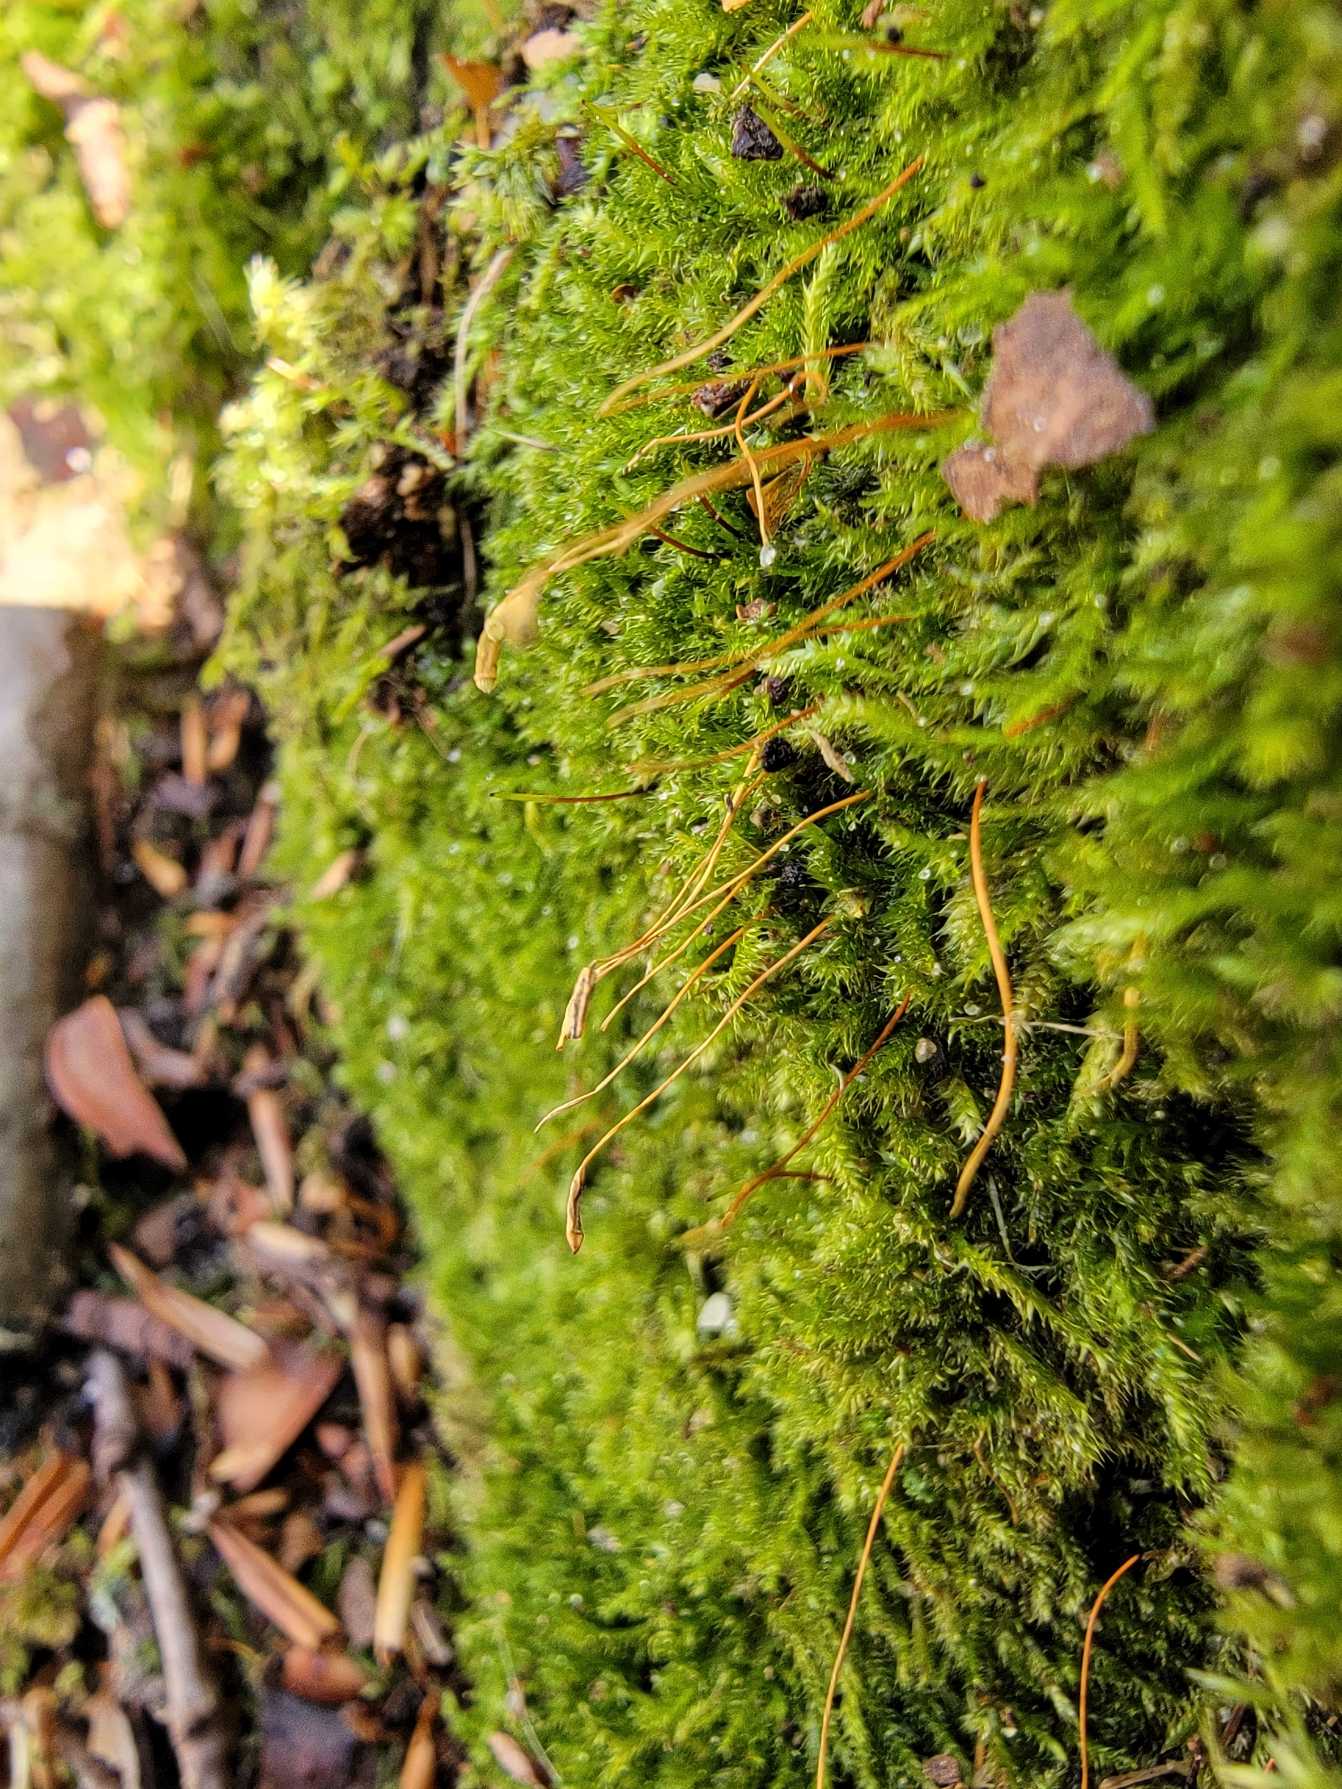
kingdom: Plantae
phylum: Bryophyta
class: Bryopsida
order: Hypnales
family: Plagiotheciaceae
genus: Herzogiella
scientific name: Herzogiella striatella
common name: Tæt pølsekapsel
